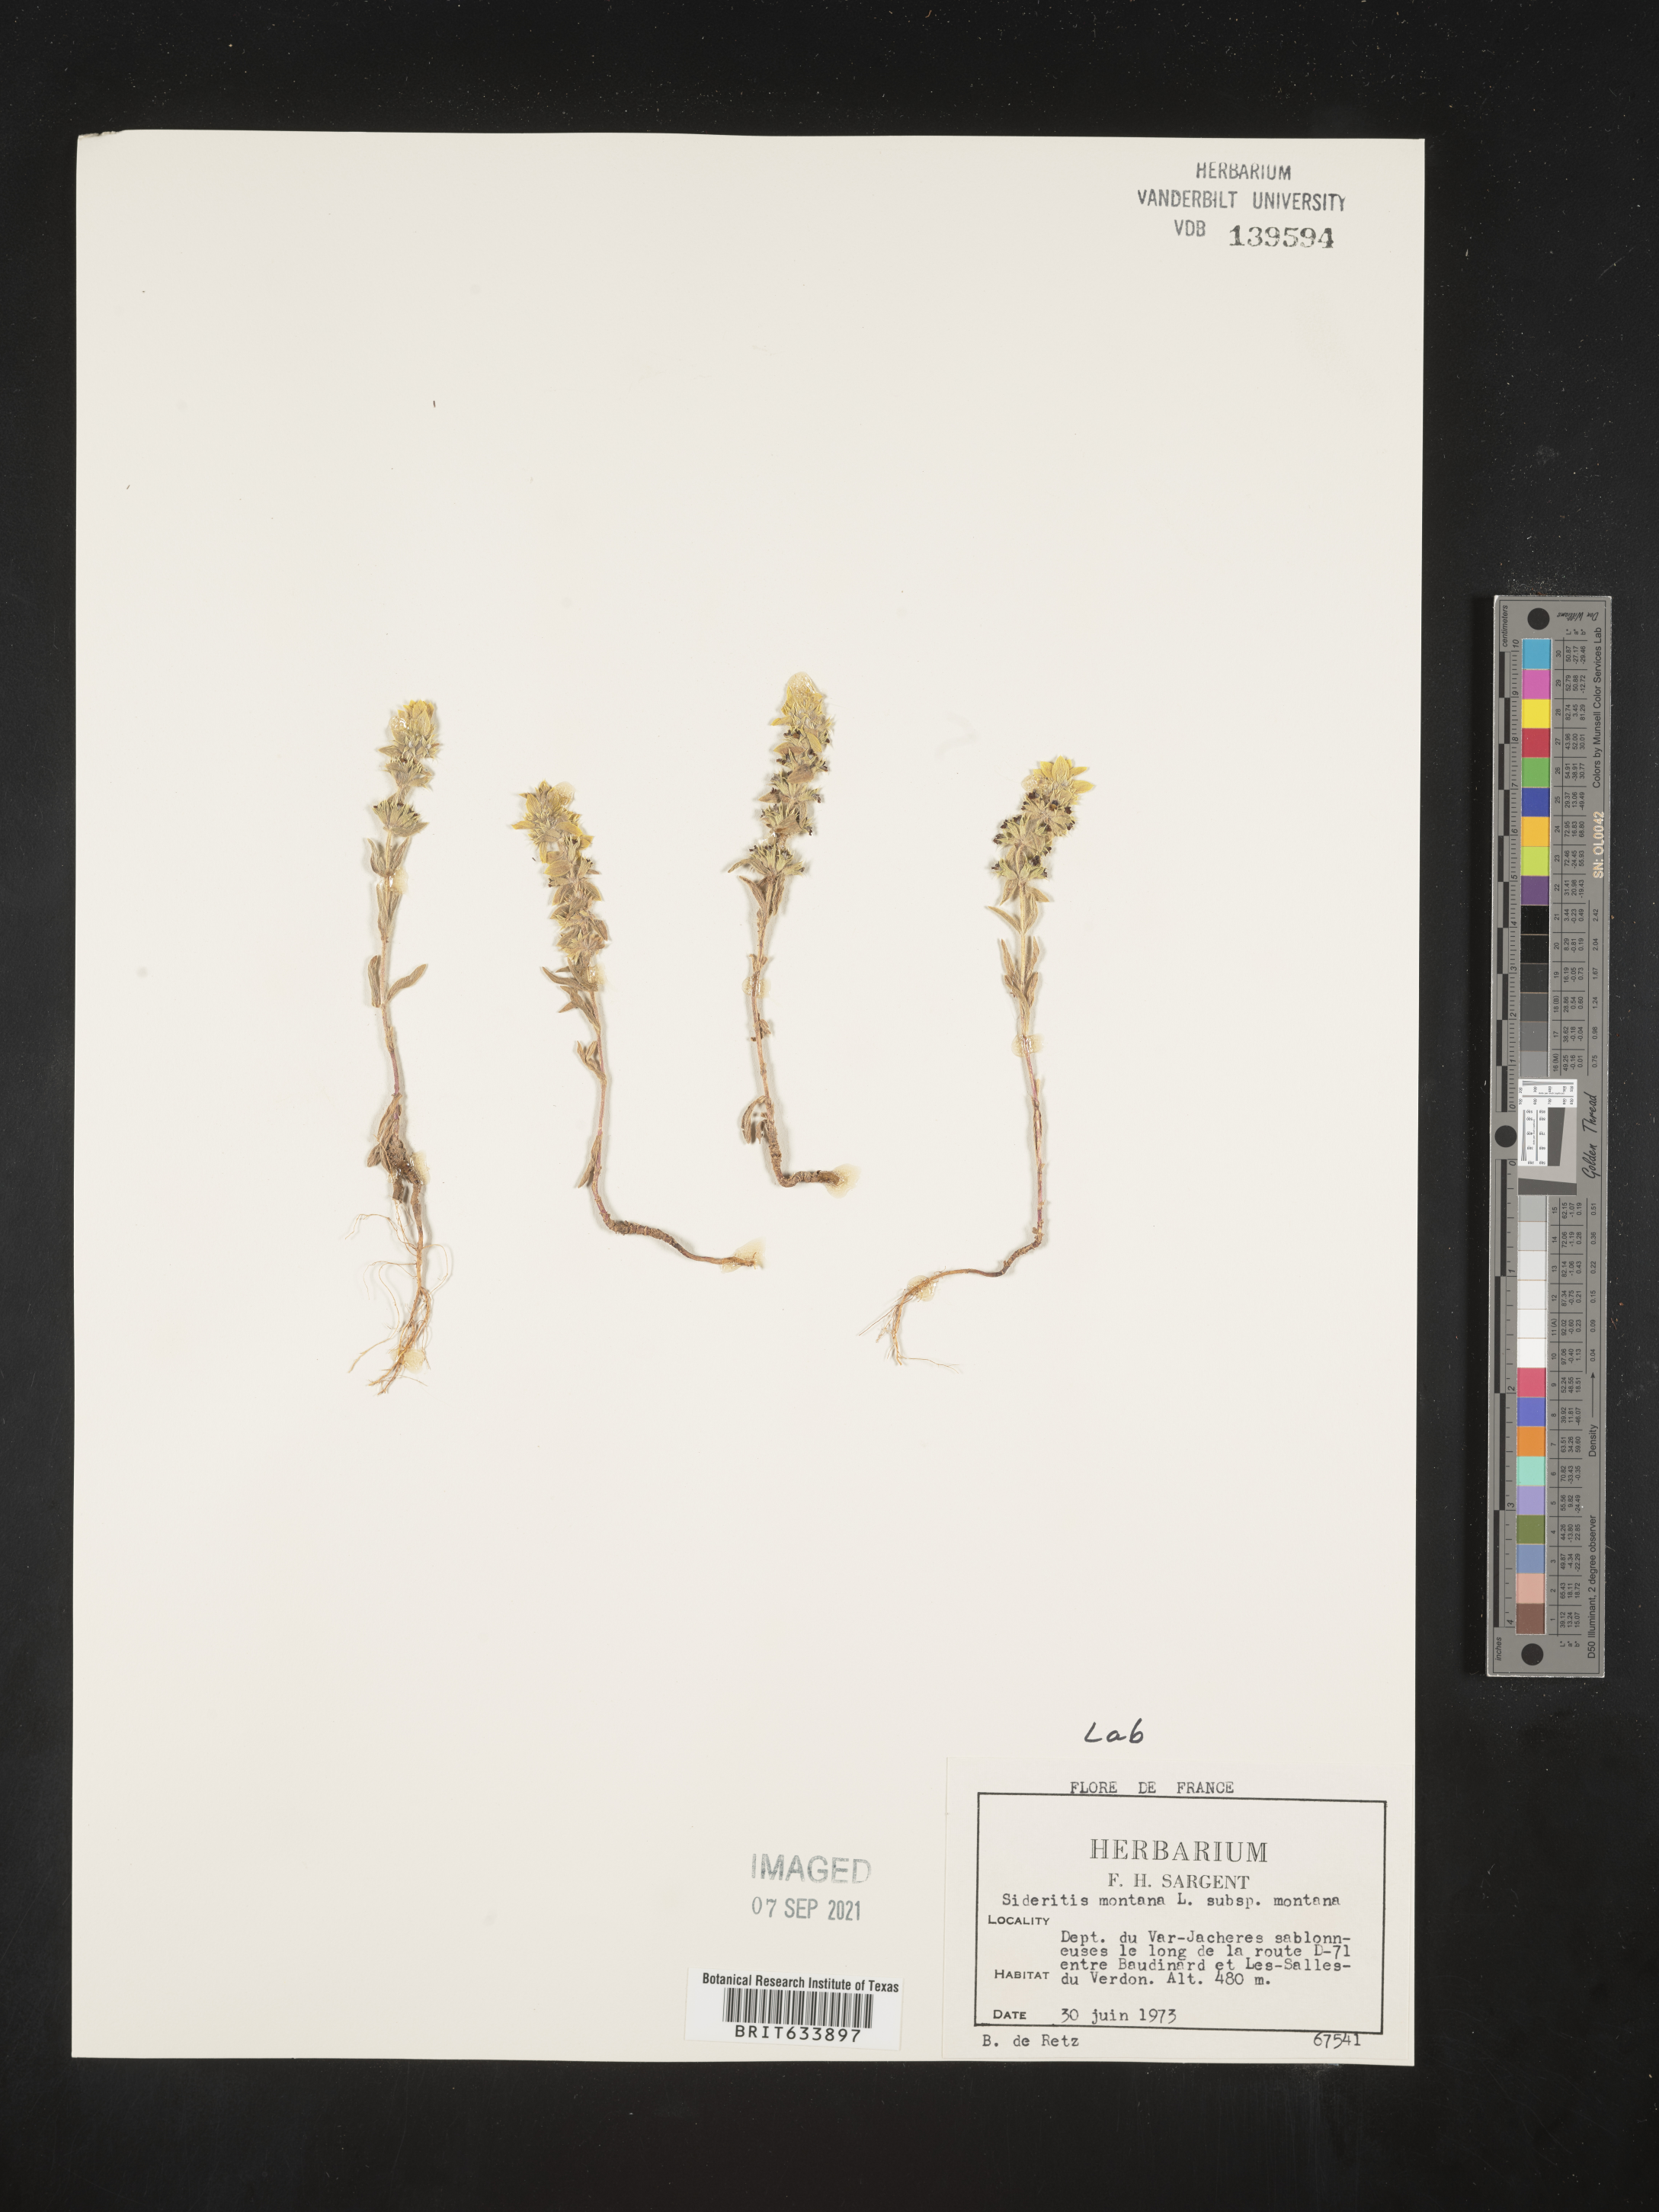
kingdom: Plantae
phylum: Tracheophyta
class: Magnoliopsida
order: Lamiales
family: Lamiaceae
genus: Sideritis
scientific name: Sideritis
